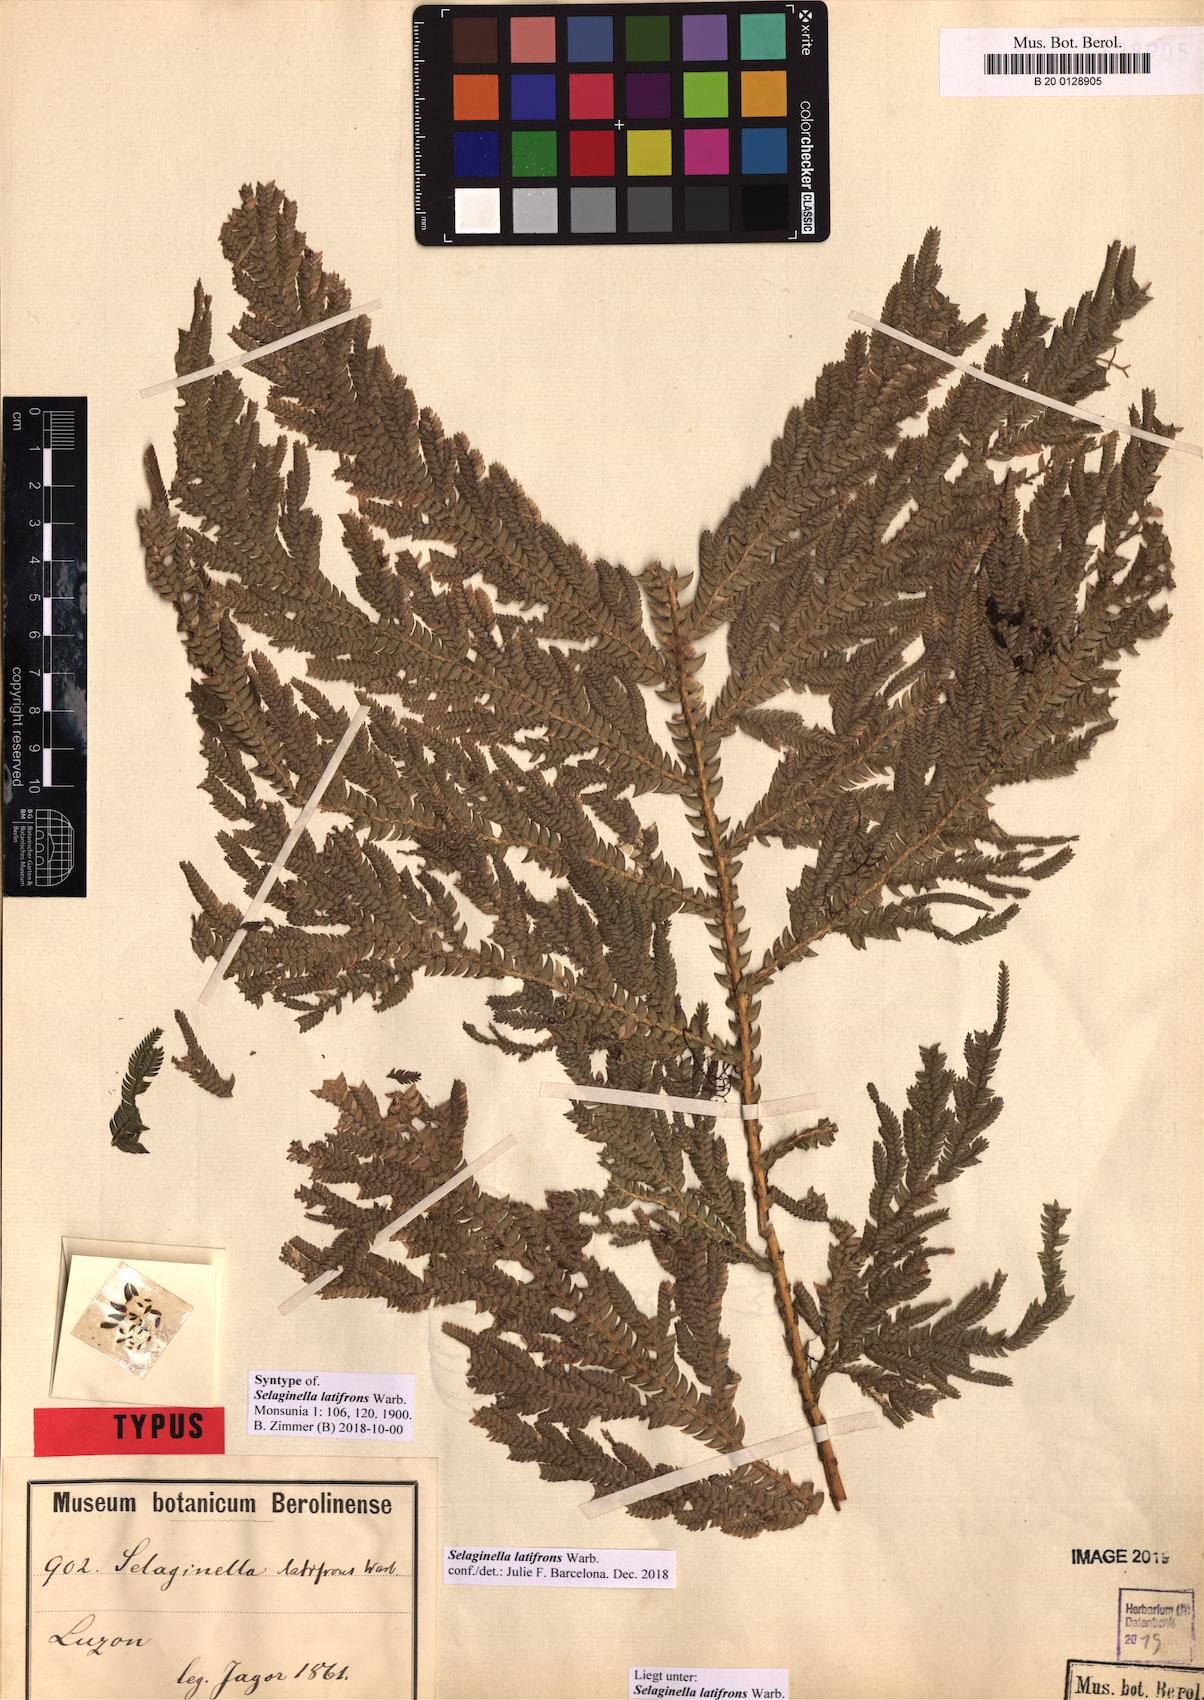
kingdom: Plantae
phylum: Tracheophyta
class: Lycopodiopsida
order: Selaginellales
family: Selaginellaceae
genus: Selaginella
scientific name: Selaginella copelandii
